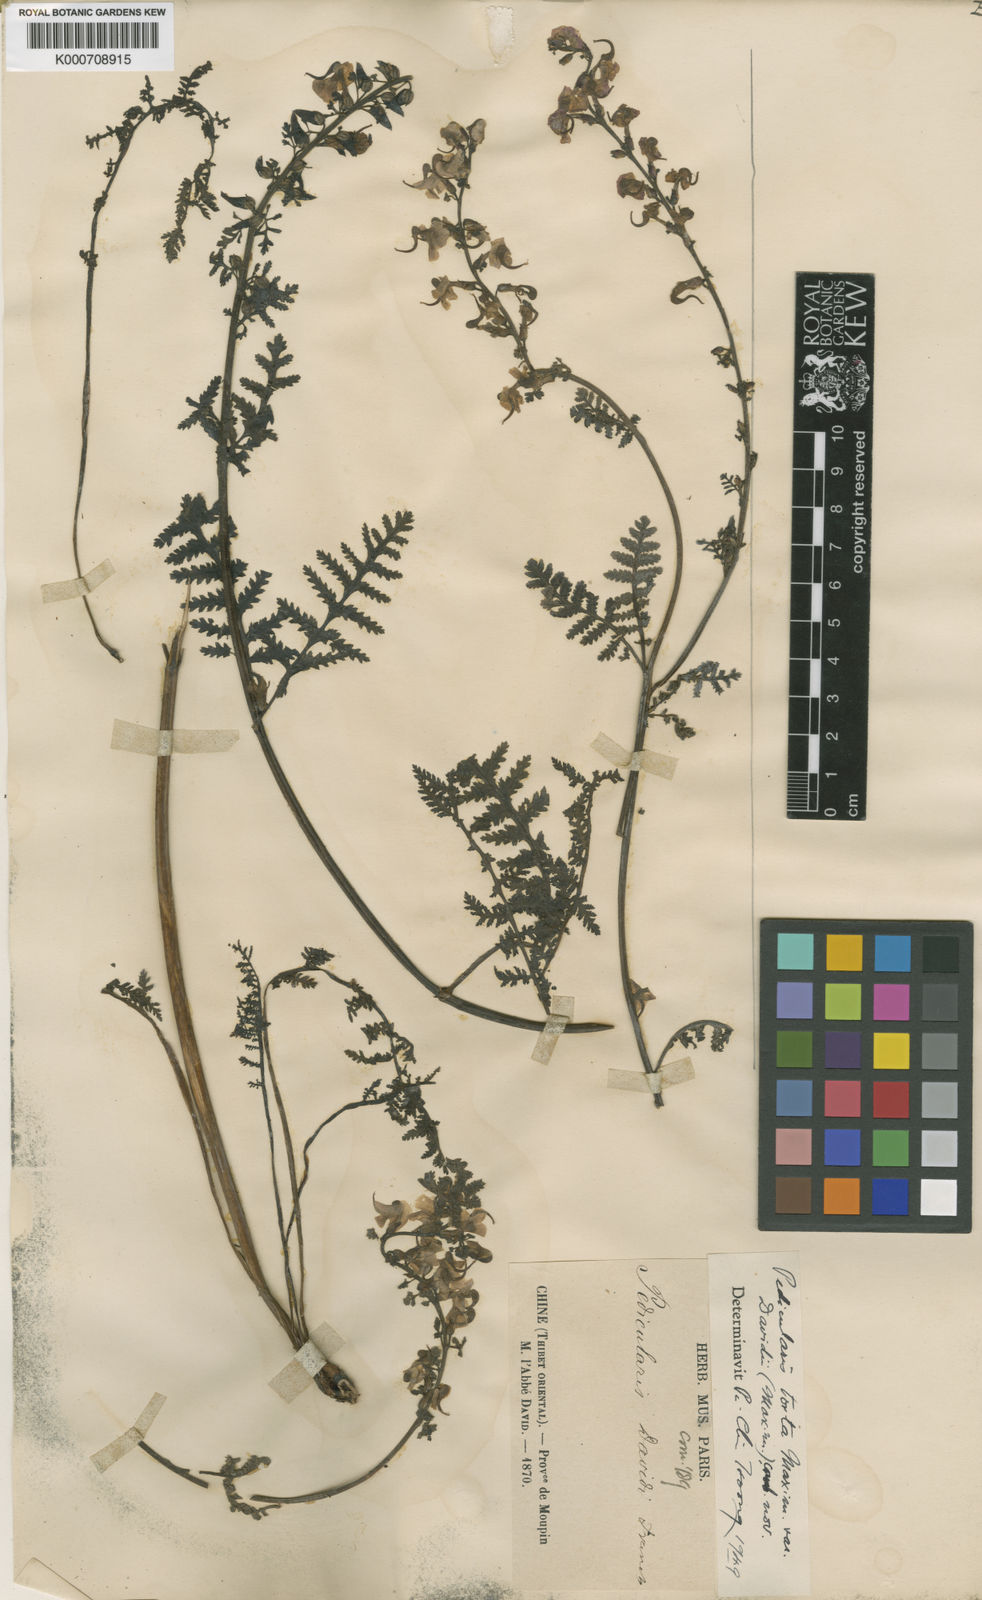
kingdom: Plantae
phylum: Tracheophyta
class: Magnoliopsida
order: Lamiales
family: Orobanchaceae
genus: Pedicularis
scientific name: Pedicularis
